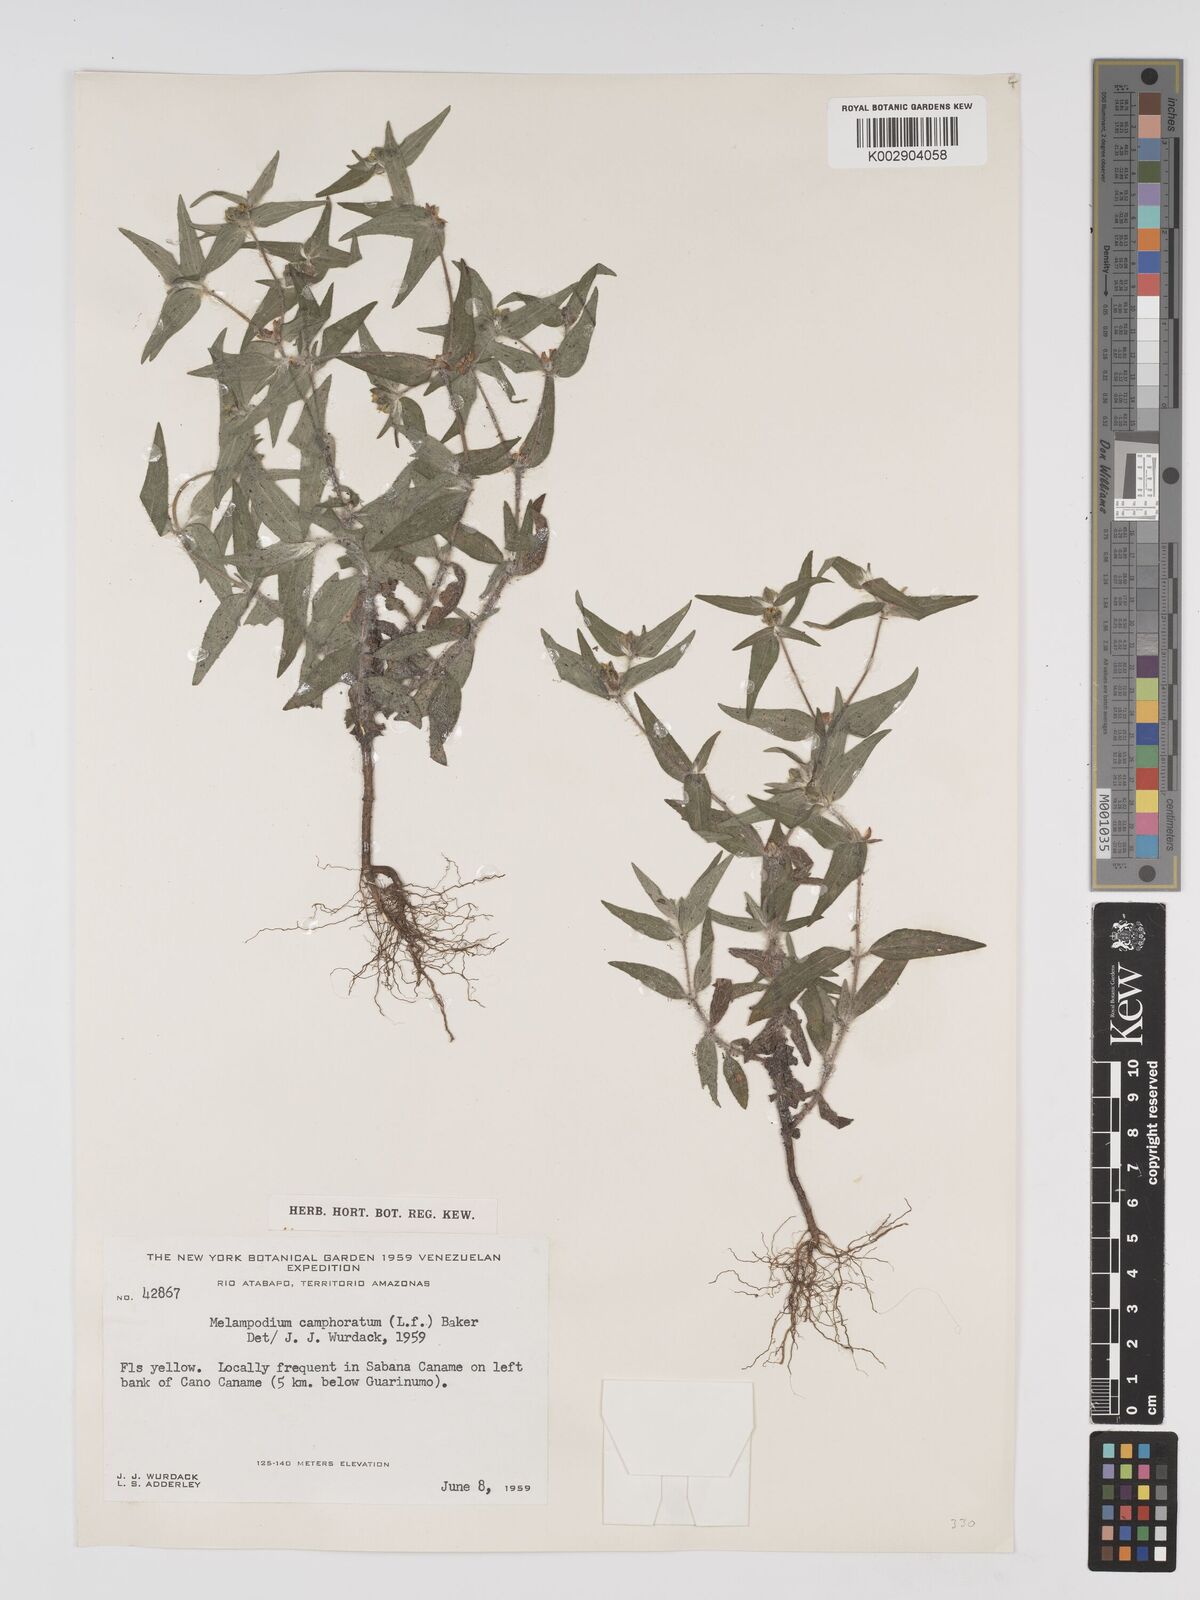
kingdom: Plantae
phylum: Tracheophyta
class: Magnoliopsida
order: Asterales
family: Asteraceae
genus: Unxia
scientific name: Unxia camphorata
